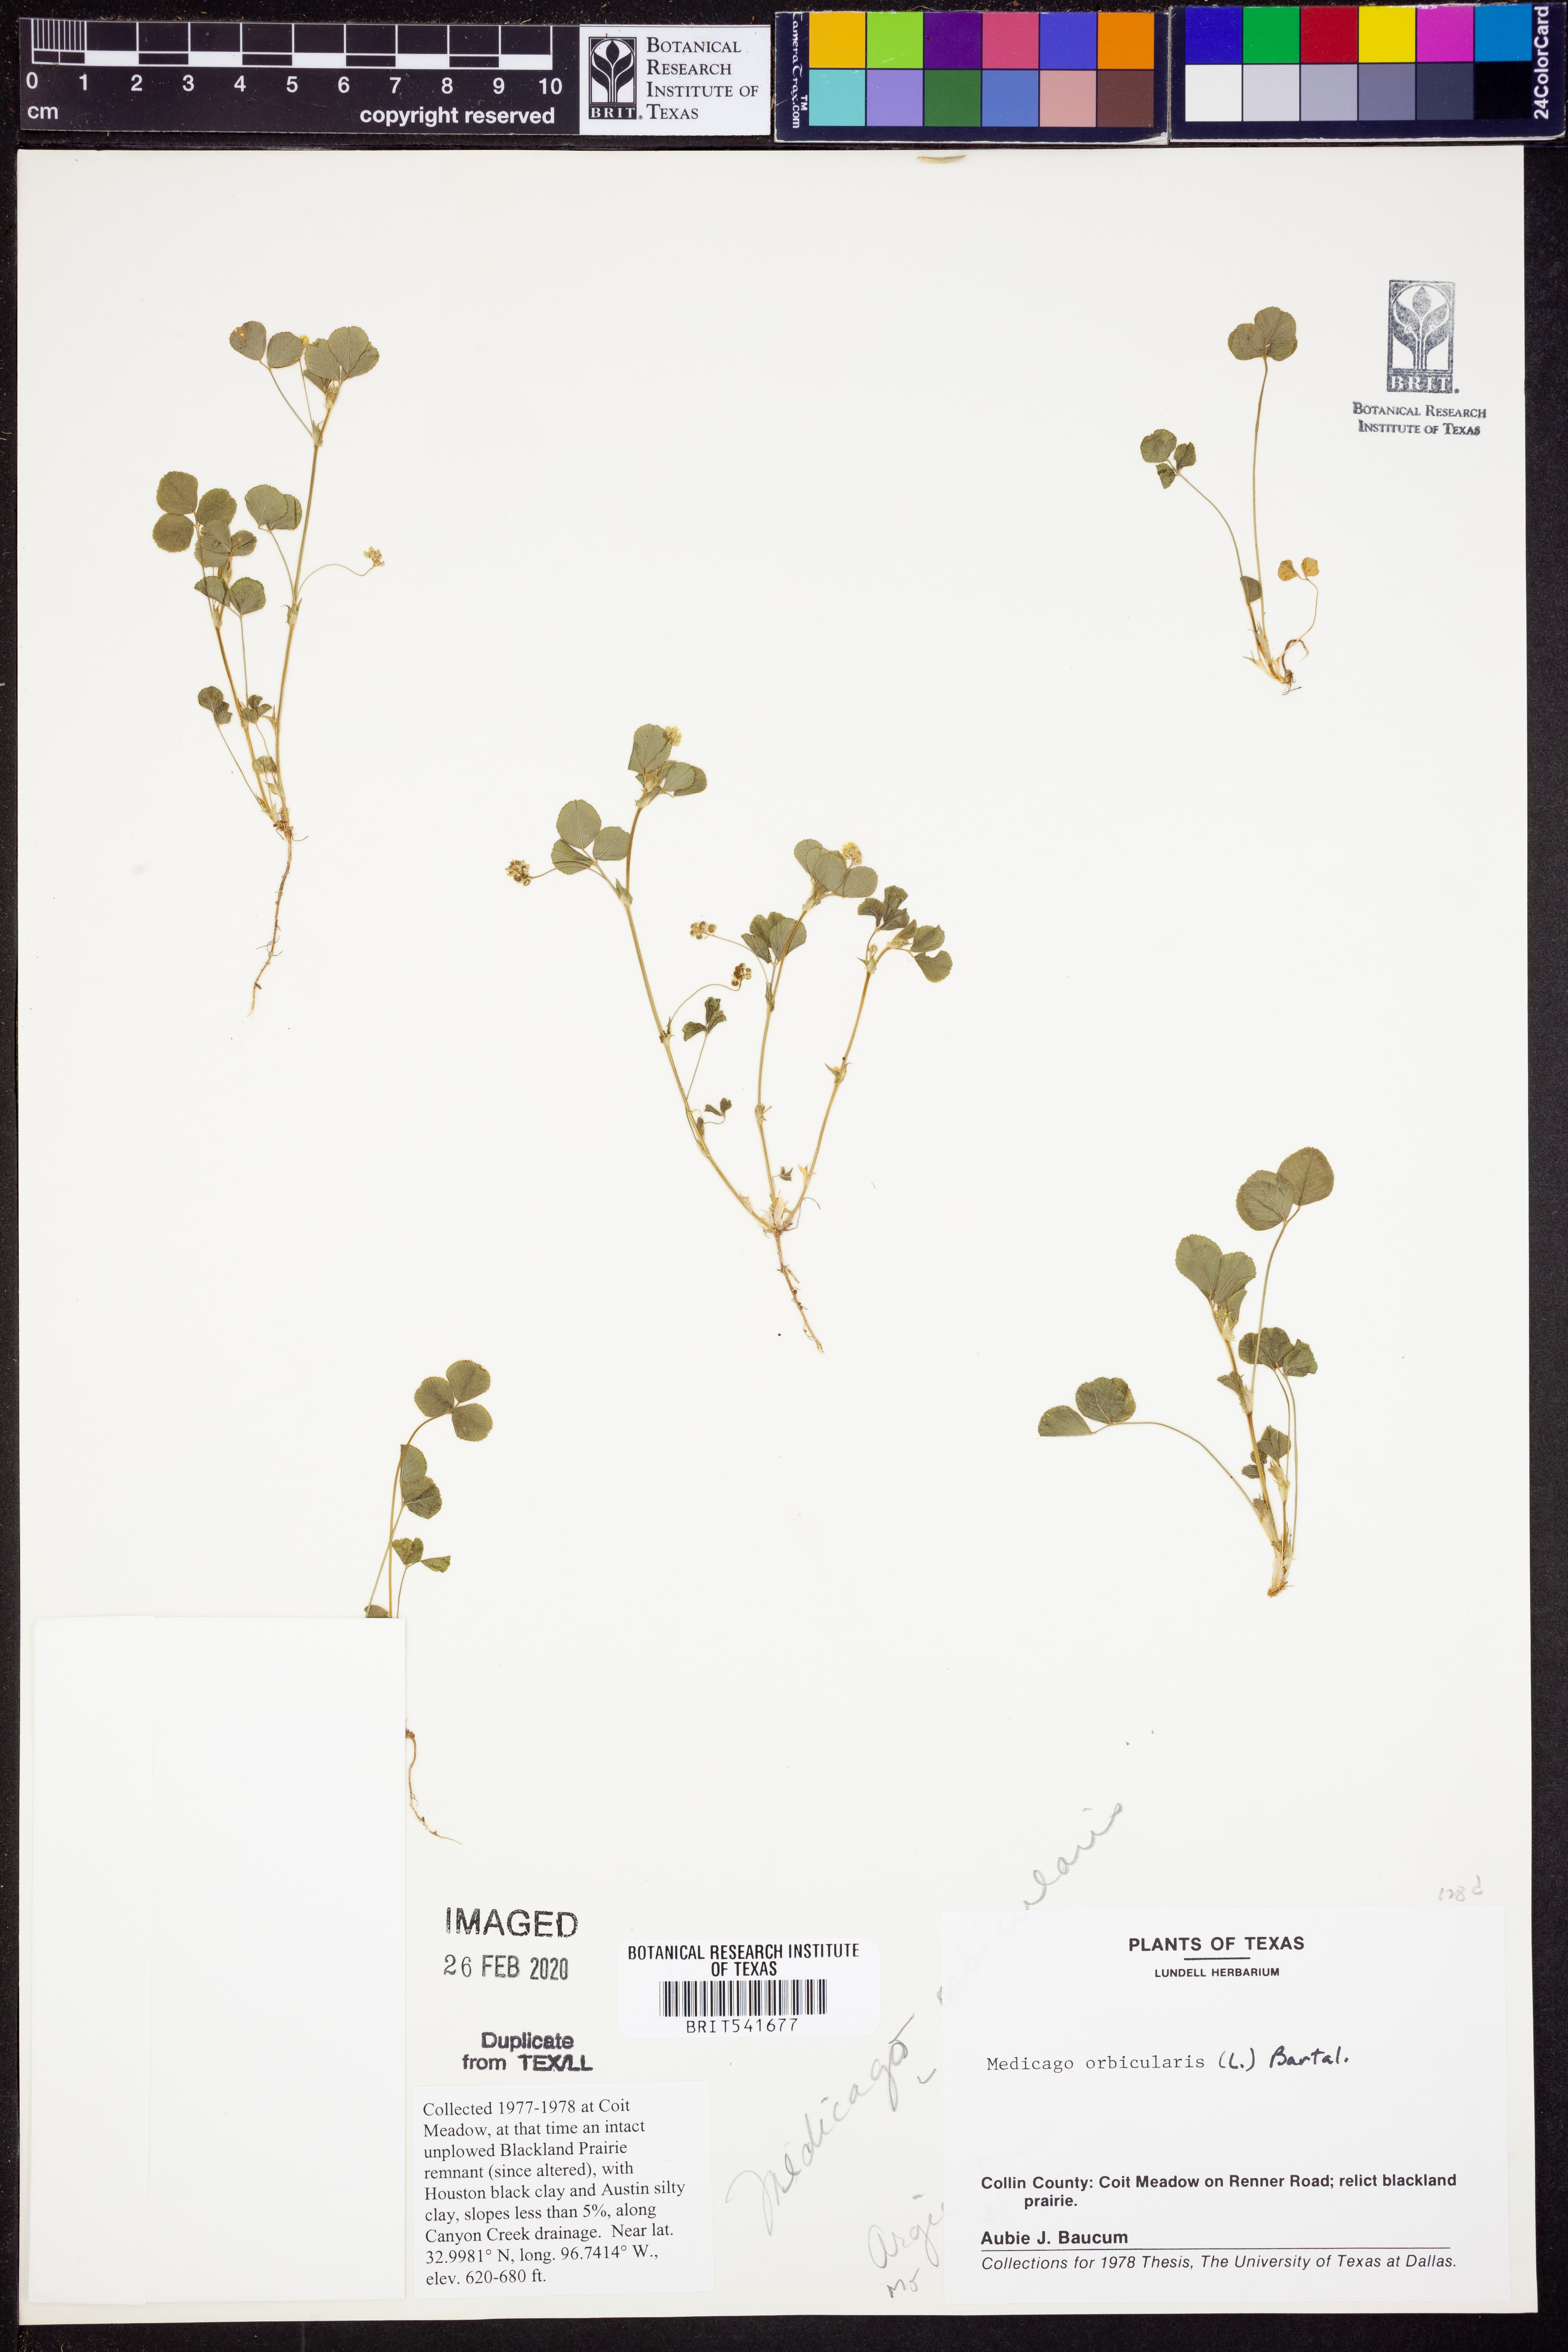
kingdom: Plantae
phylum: Tracheophyta
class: Magnoliopsida
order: Fabales
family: Fabaceae
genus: Medicago
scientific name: Medicago orbicularis
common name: Button medick
